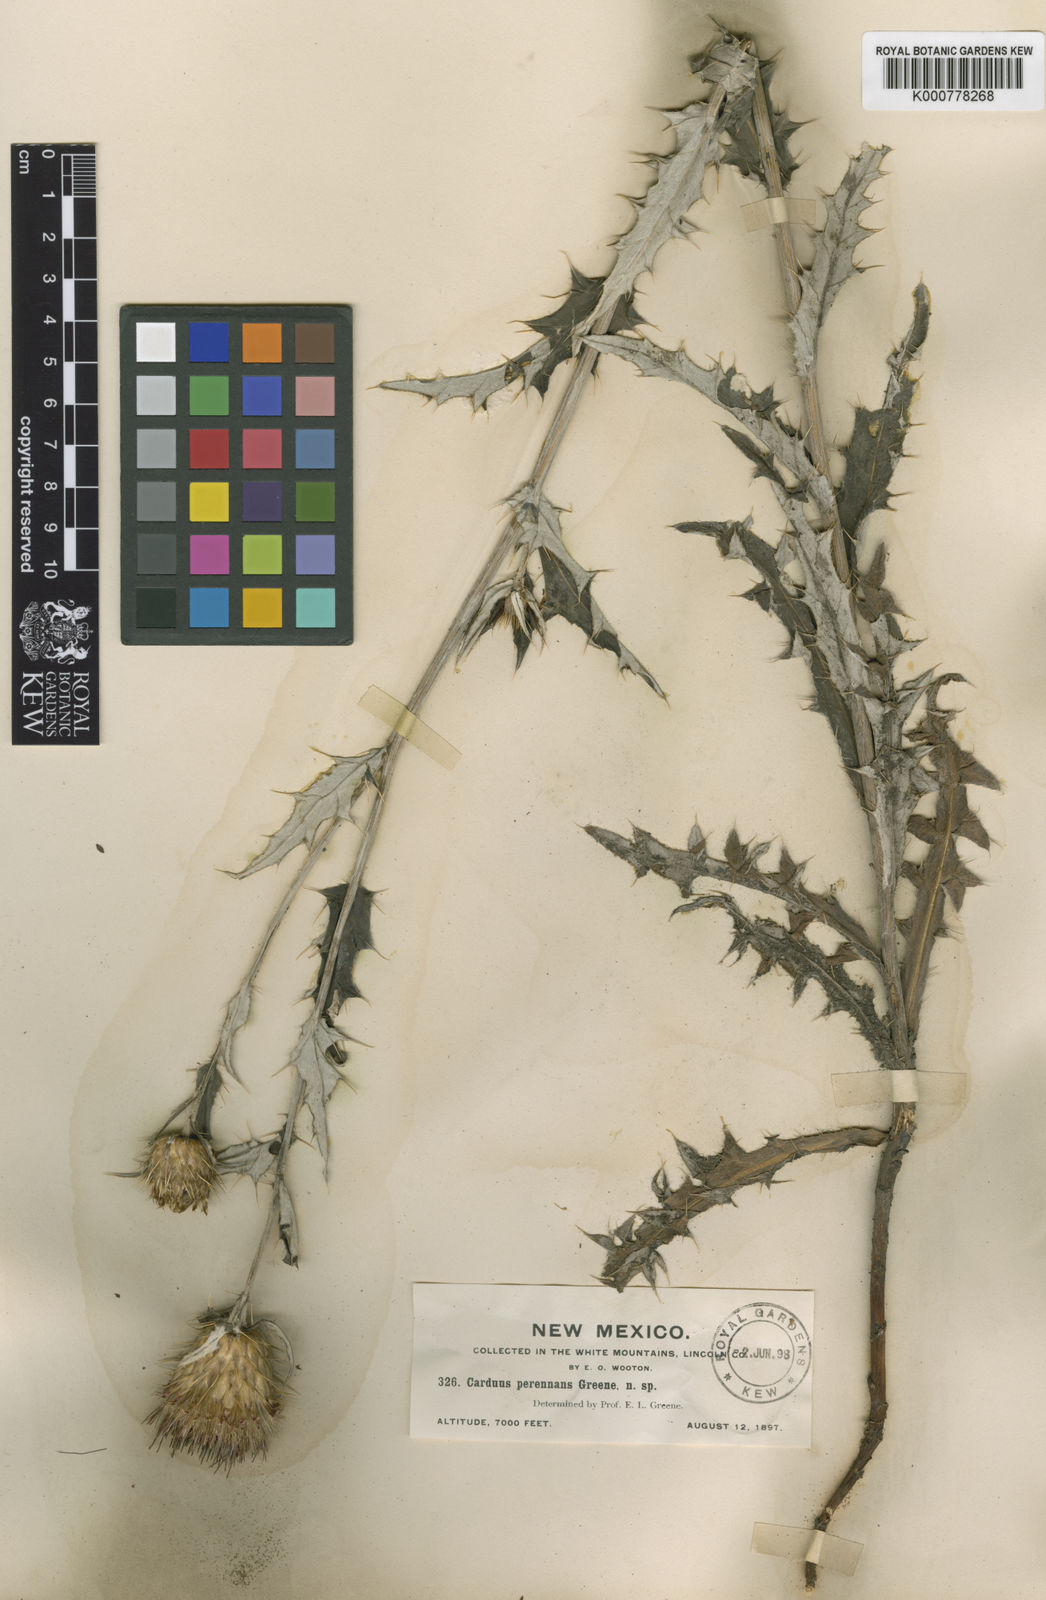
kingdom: Plantae
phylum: Tracheophyta
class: Magnoliopsida
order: Asterales
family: Asteraceae
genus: Cirsium
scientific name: Cirsium wheeleri
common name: Wheeler's thistle
